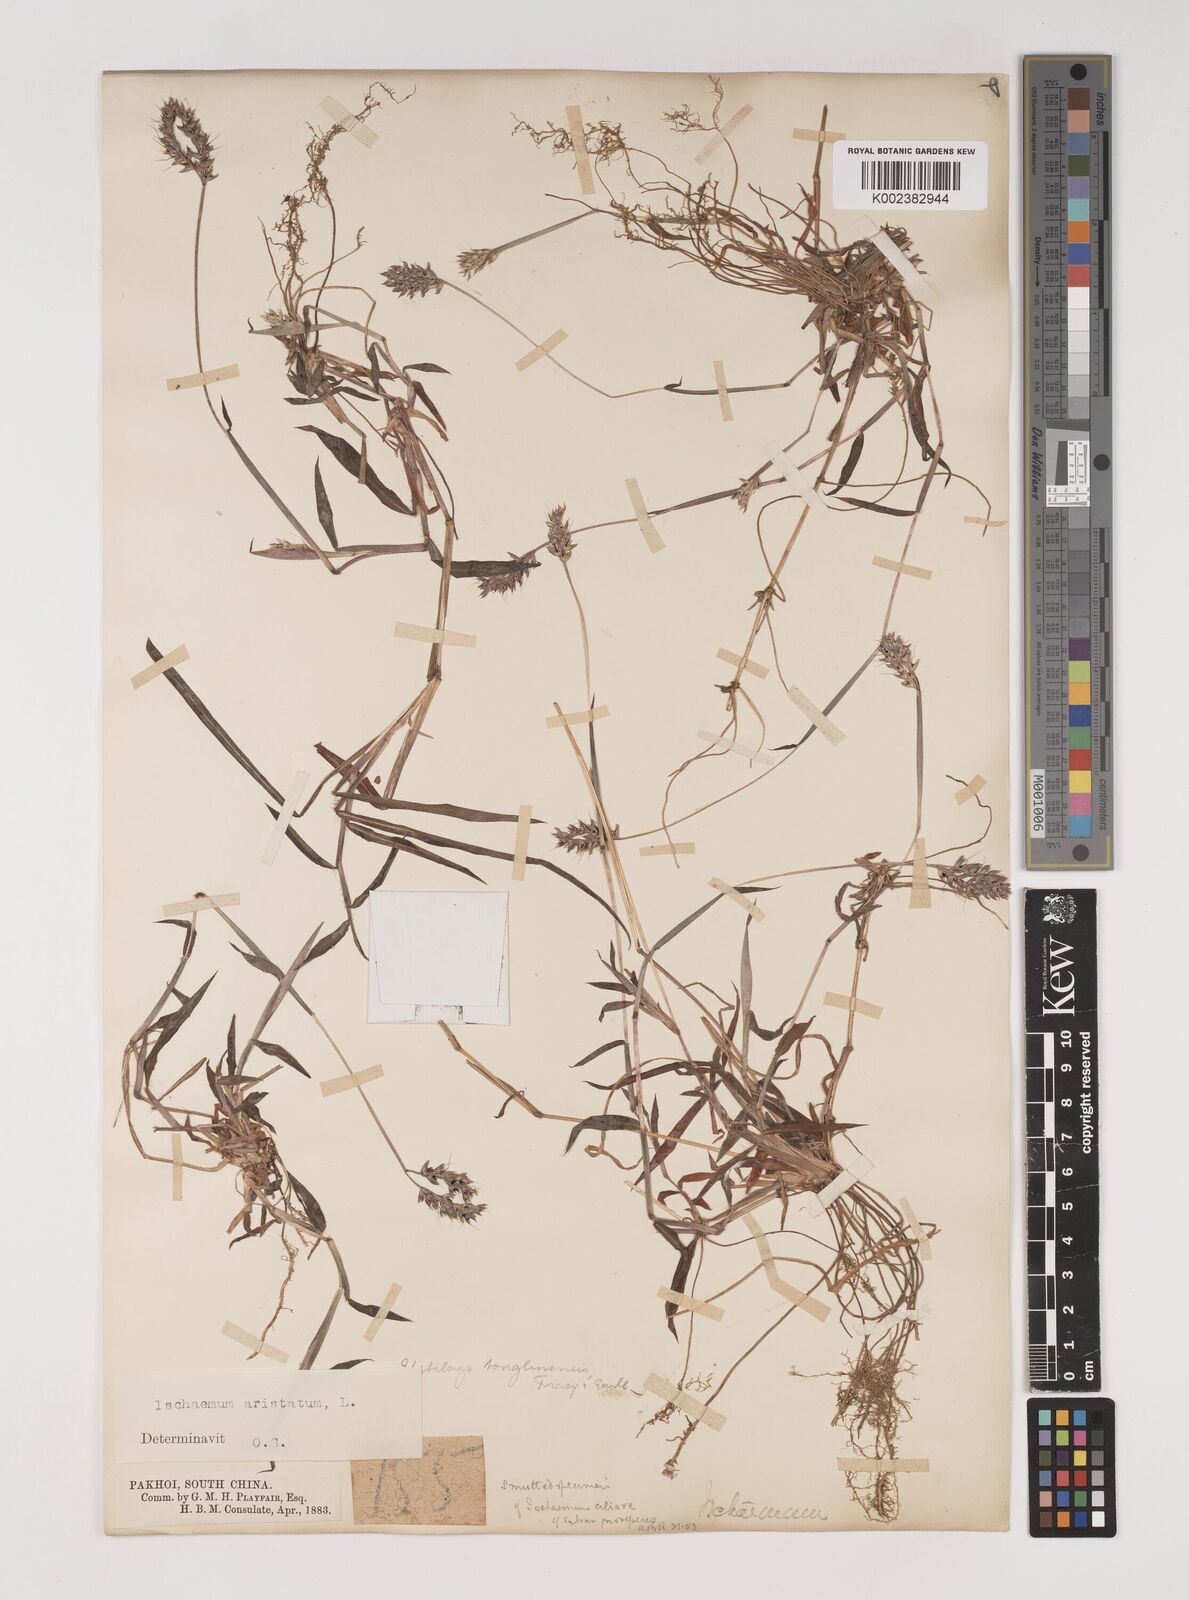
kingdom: Plantae
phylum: Tracheophyta
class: Liliopsida
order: Poales
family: Poaceae
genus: Polytrias
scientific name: Polytrias indica
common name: Indian murainagrass
